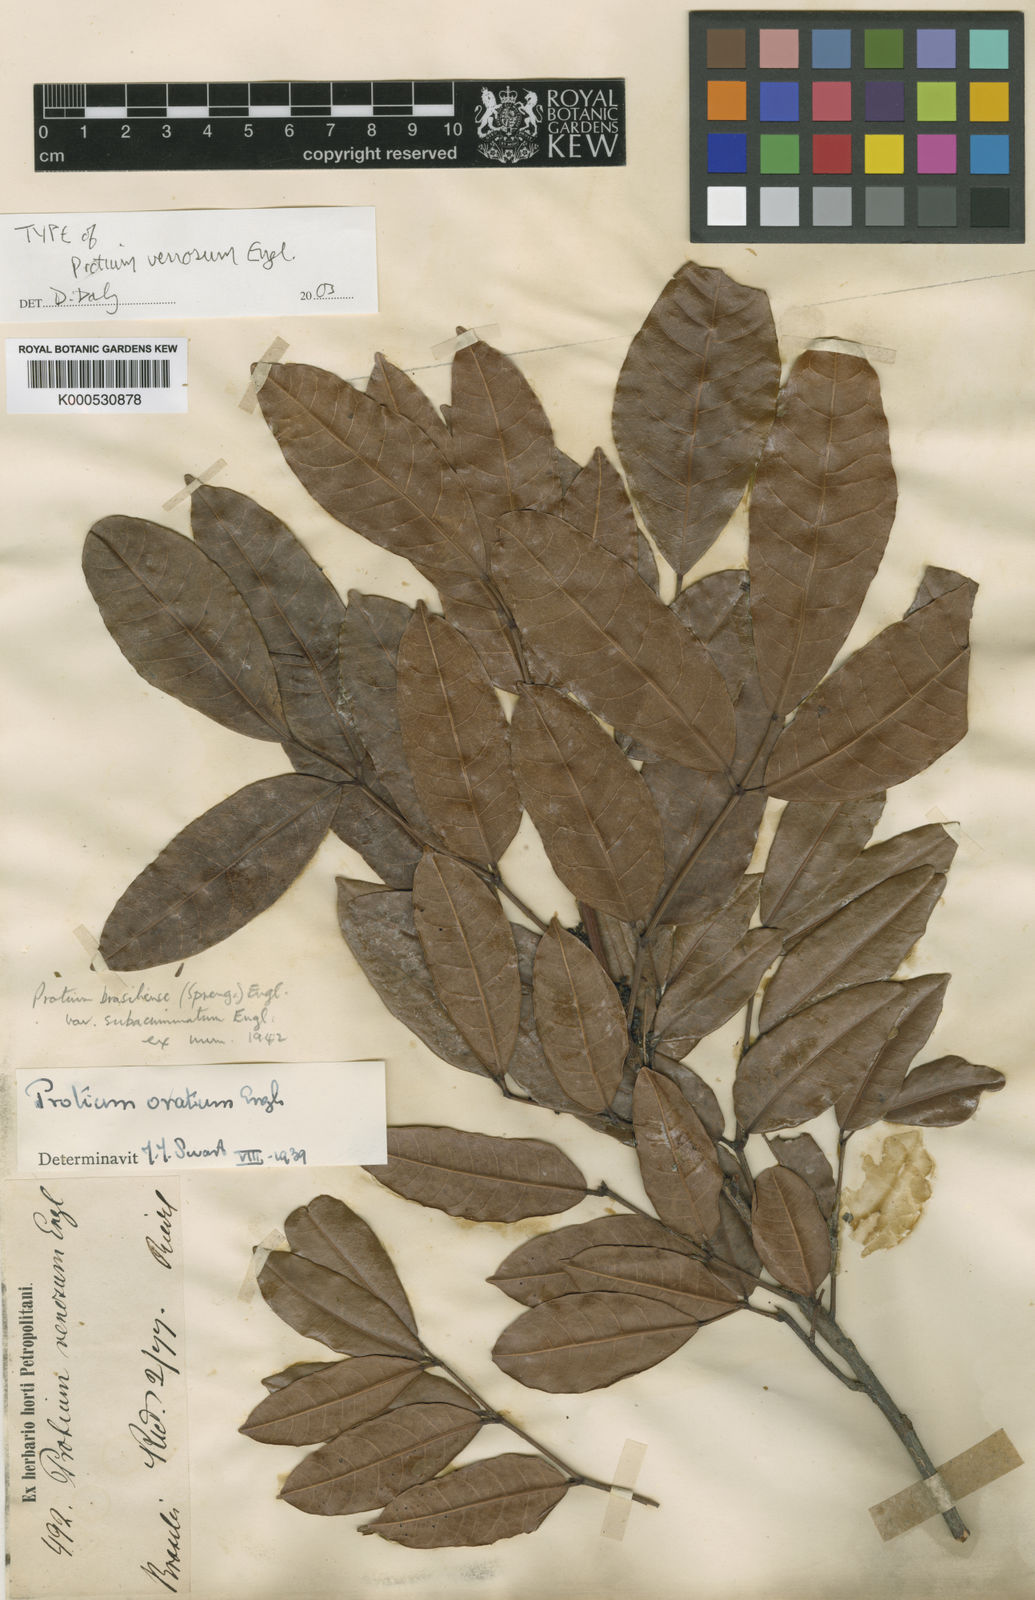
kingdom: Plantae
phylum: Tracheophyta
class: Magnoliopsida
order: Sapindales
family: Burseraceae
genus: Protium
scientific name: Protium brasiliense
